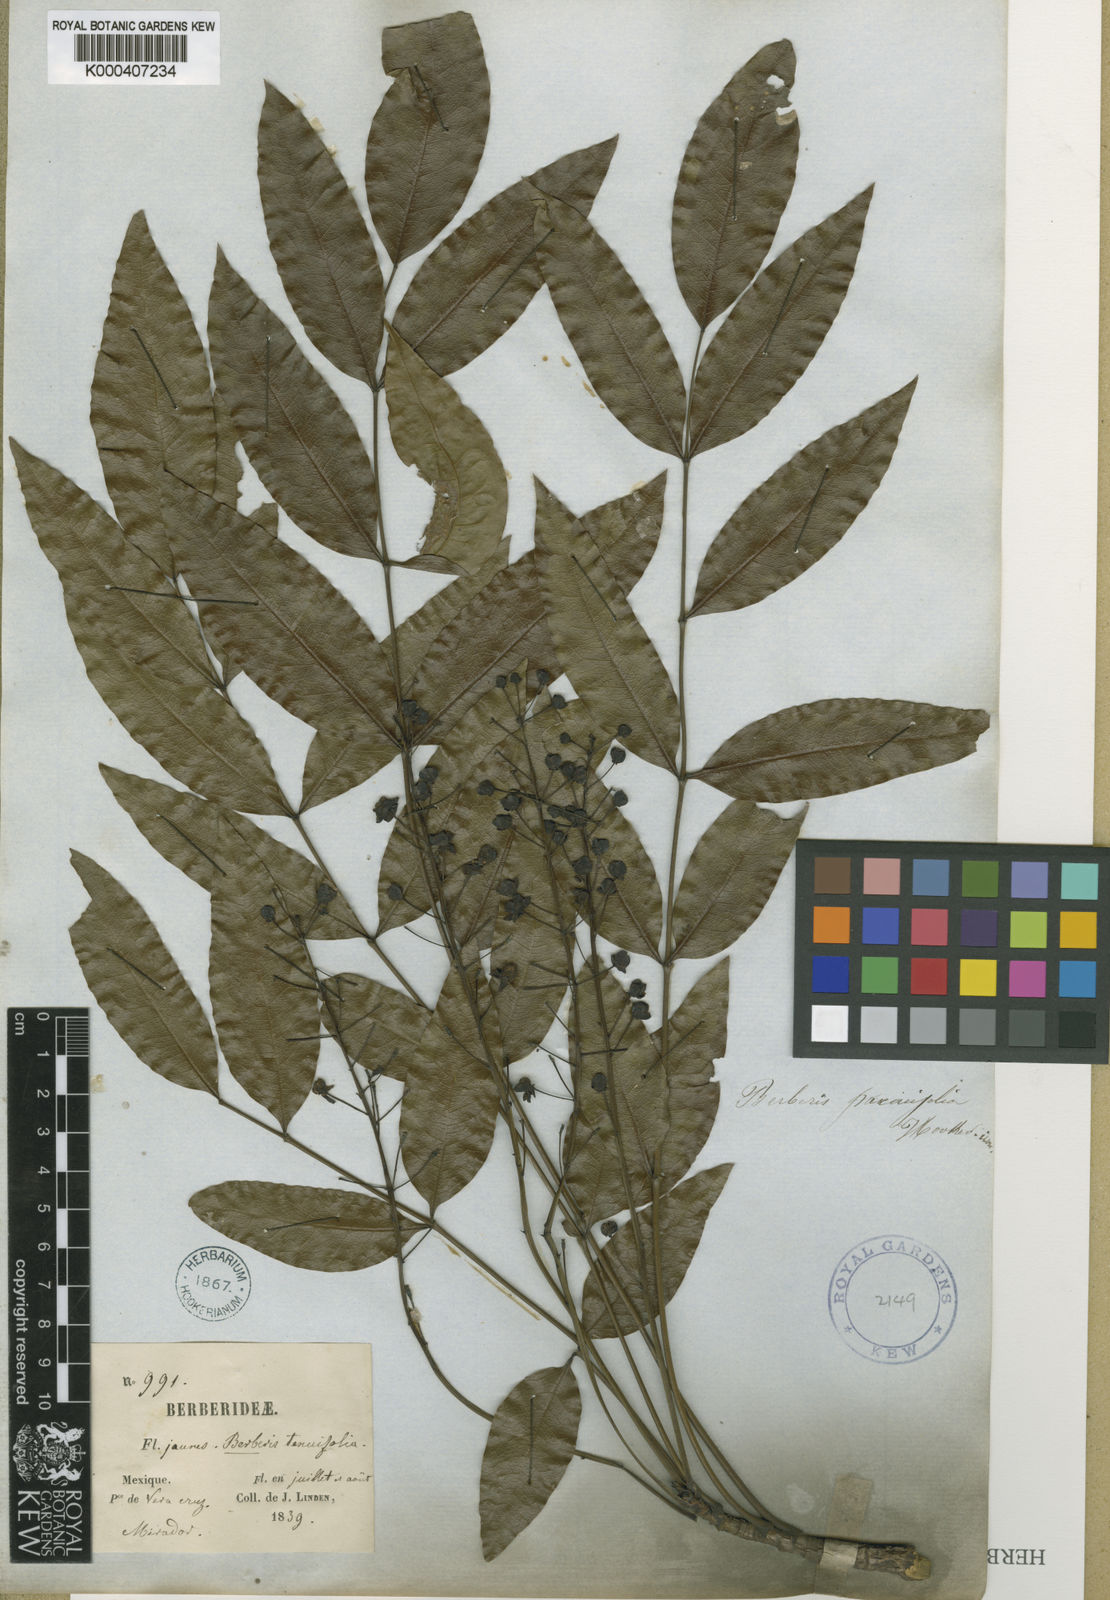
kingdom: Plantae
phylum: Tracheophyta
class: Magnoliopsida
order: Ranunculales
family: Berberidaceae
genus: Mahonia
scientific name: Mahonia
